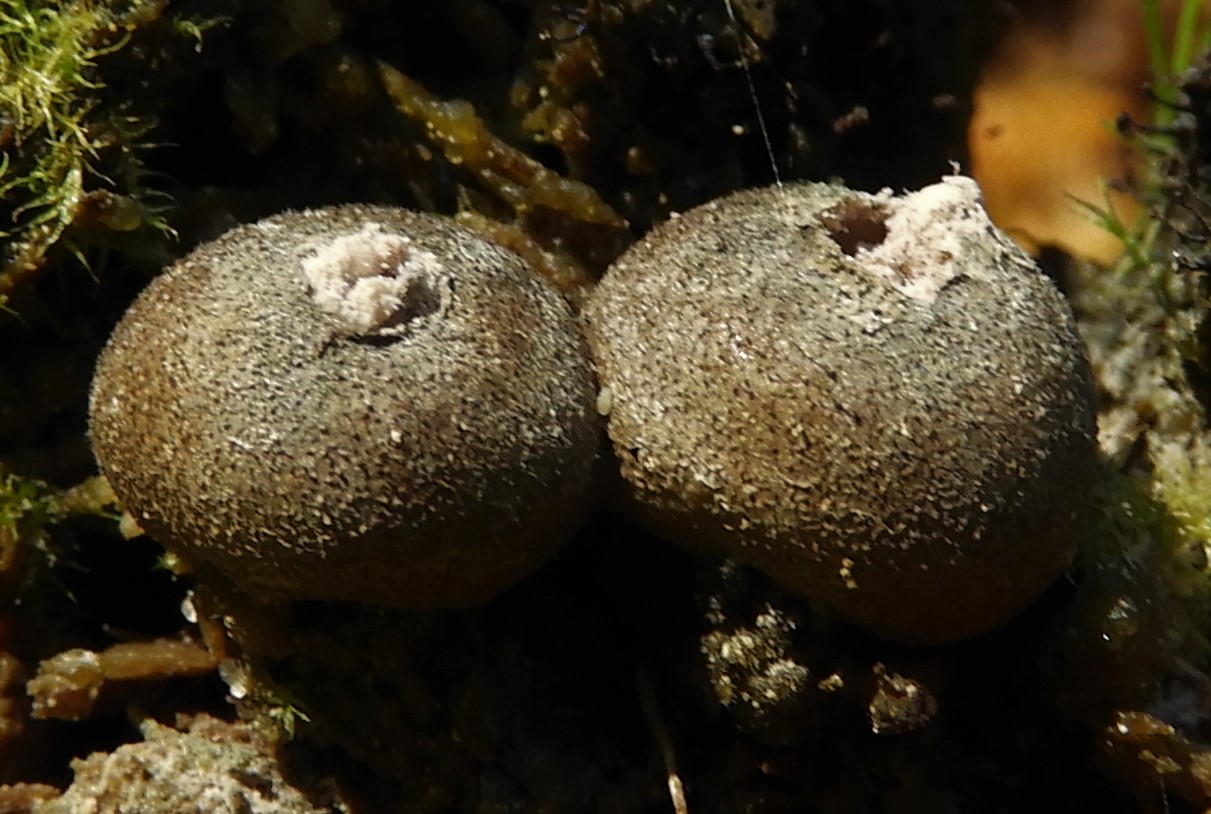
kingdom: Protozoa
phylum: Mycetozoa
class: Myxomycetes
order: Cribrariales
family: Tubiferaceae
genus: Lycogala
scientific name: Lycogala epidendrum
